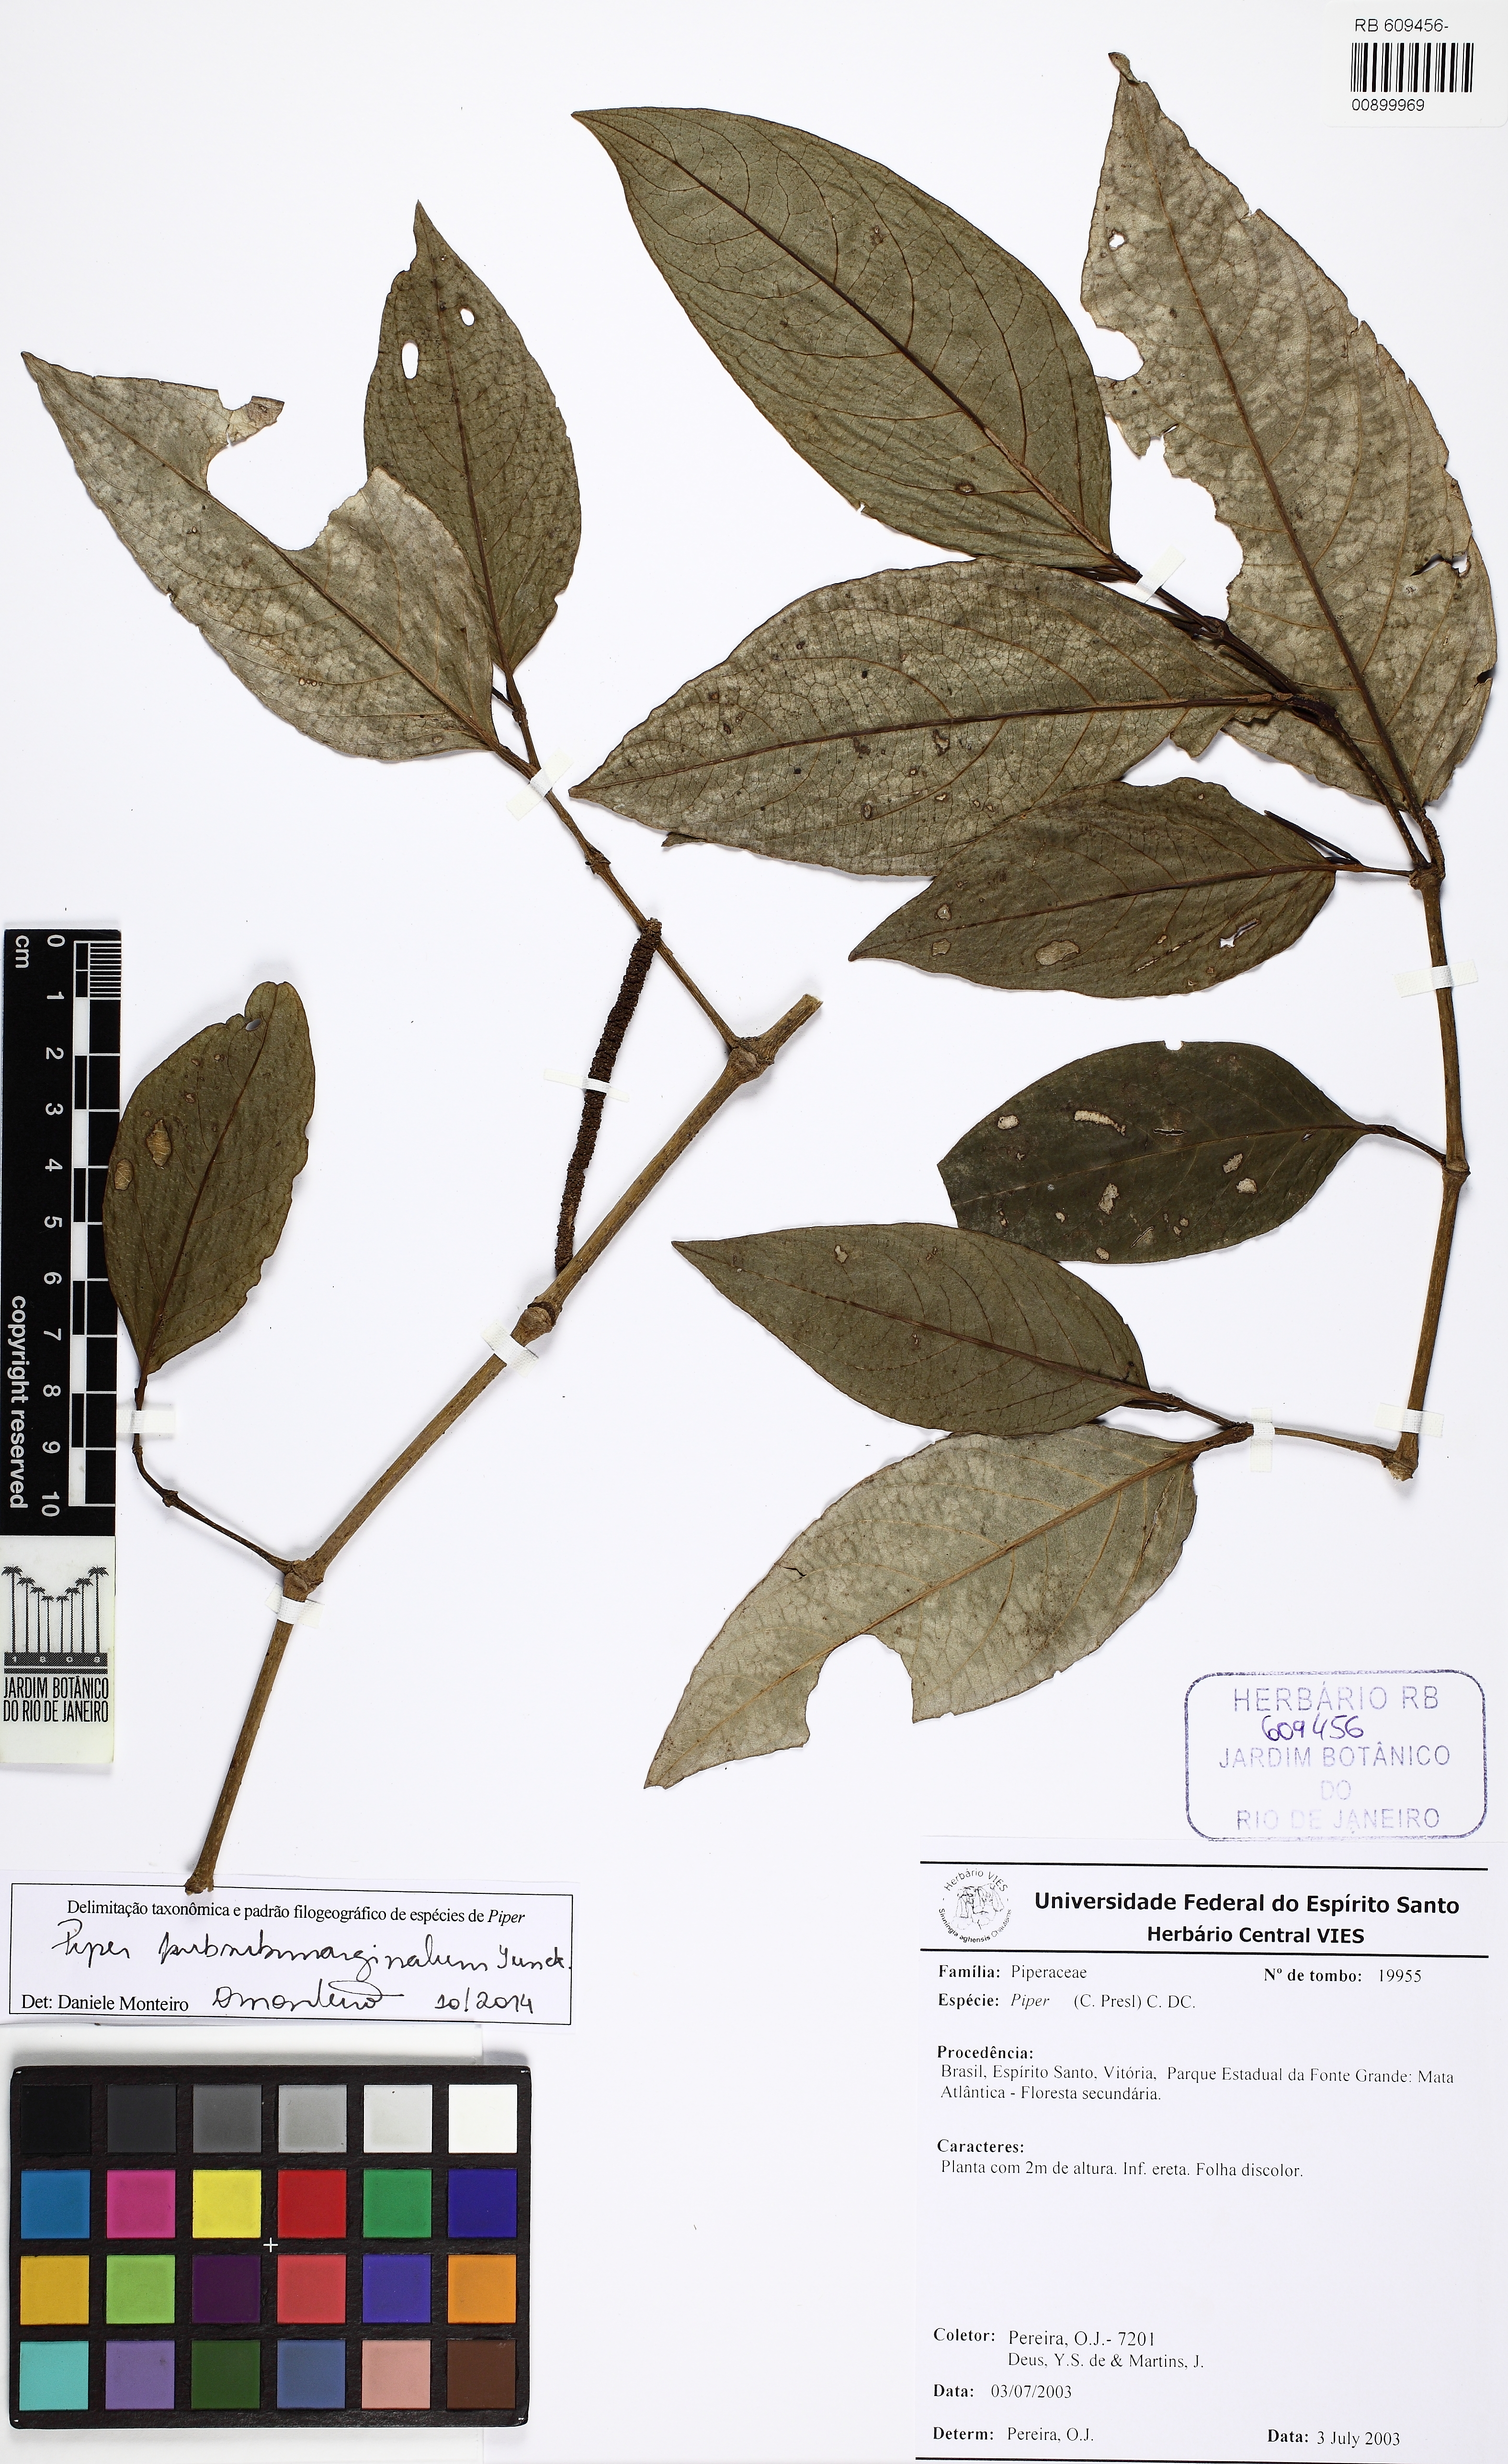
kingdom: Plantae
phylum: Tracheophyta
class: Magnoliopsida
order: Piperales
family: Piperaceae
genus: Piper
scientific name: Piper pubisubmarginalum
